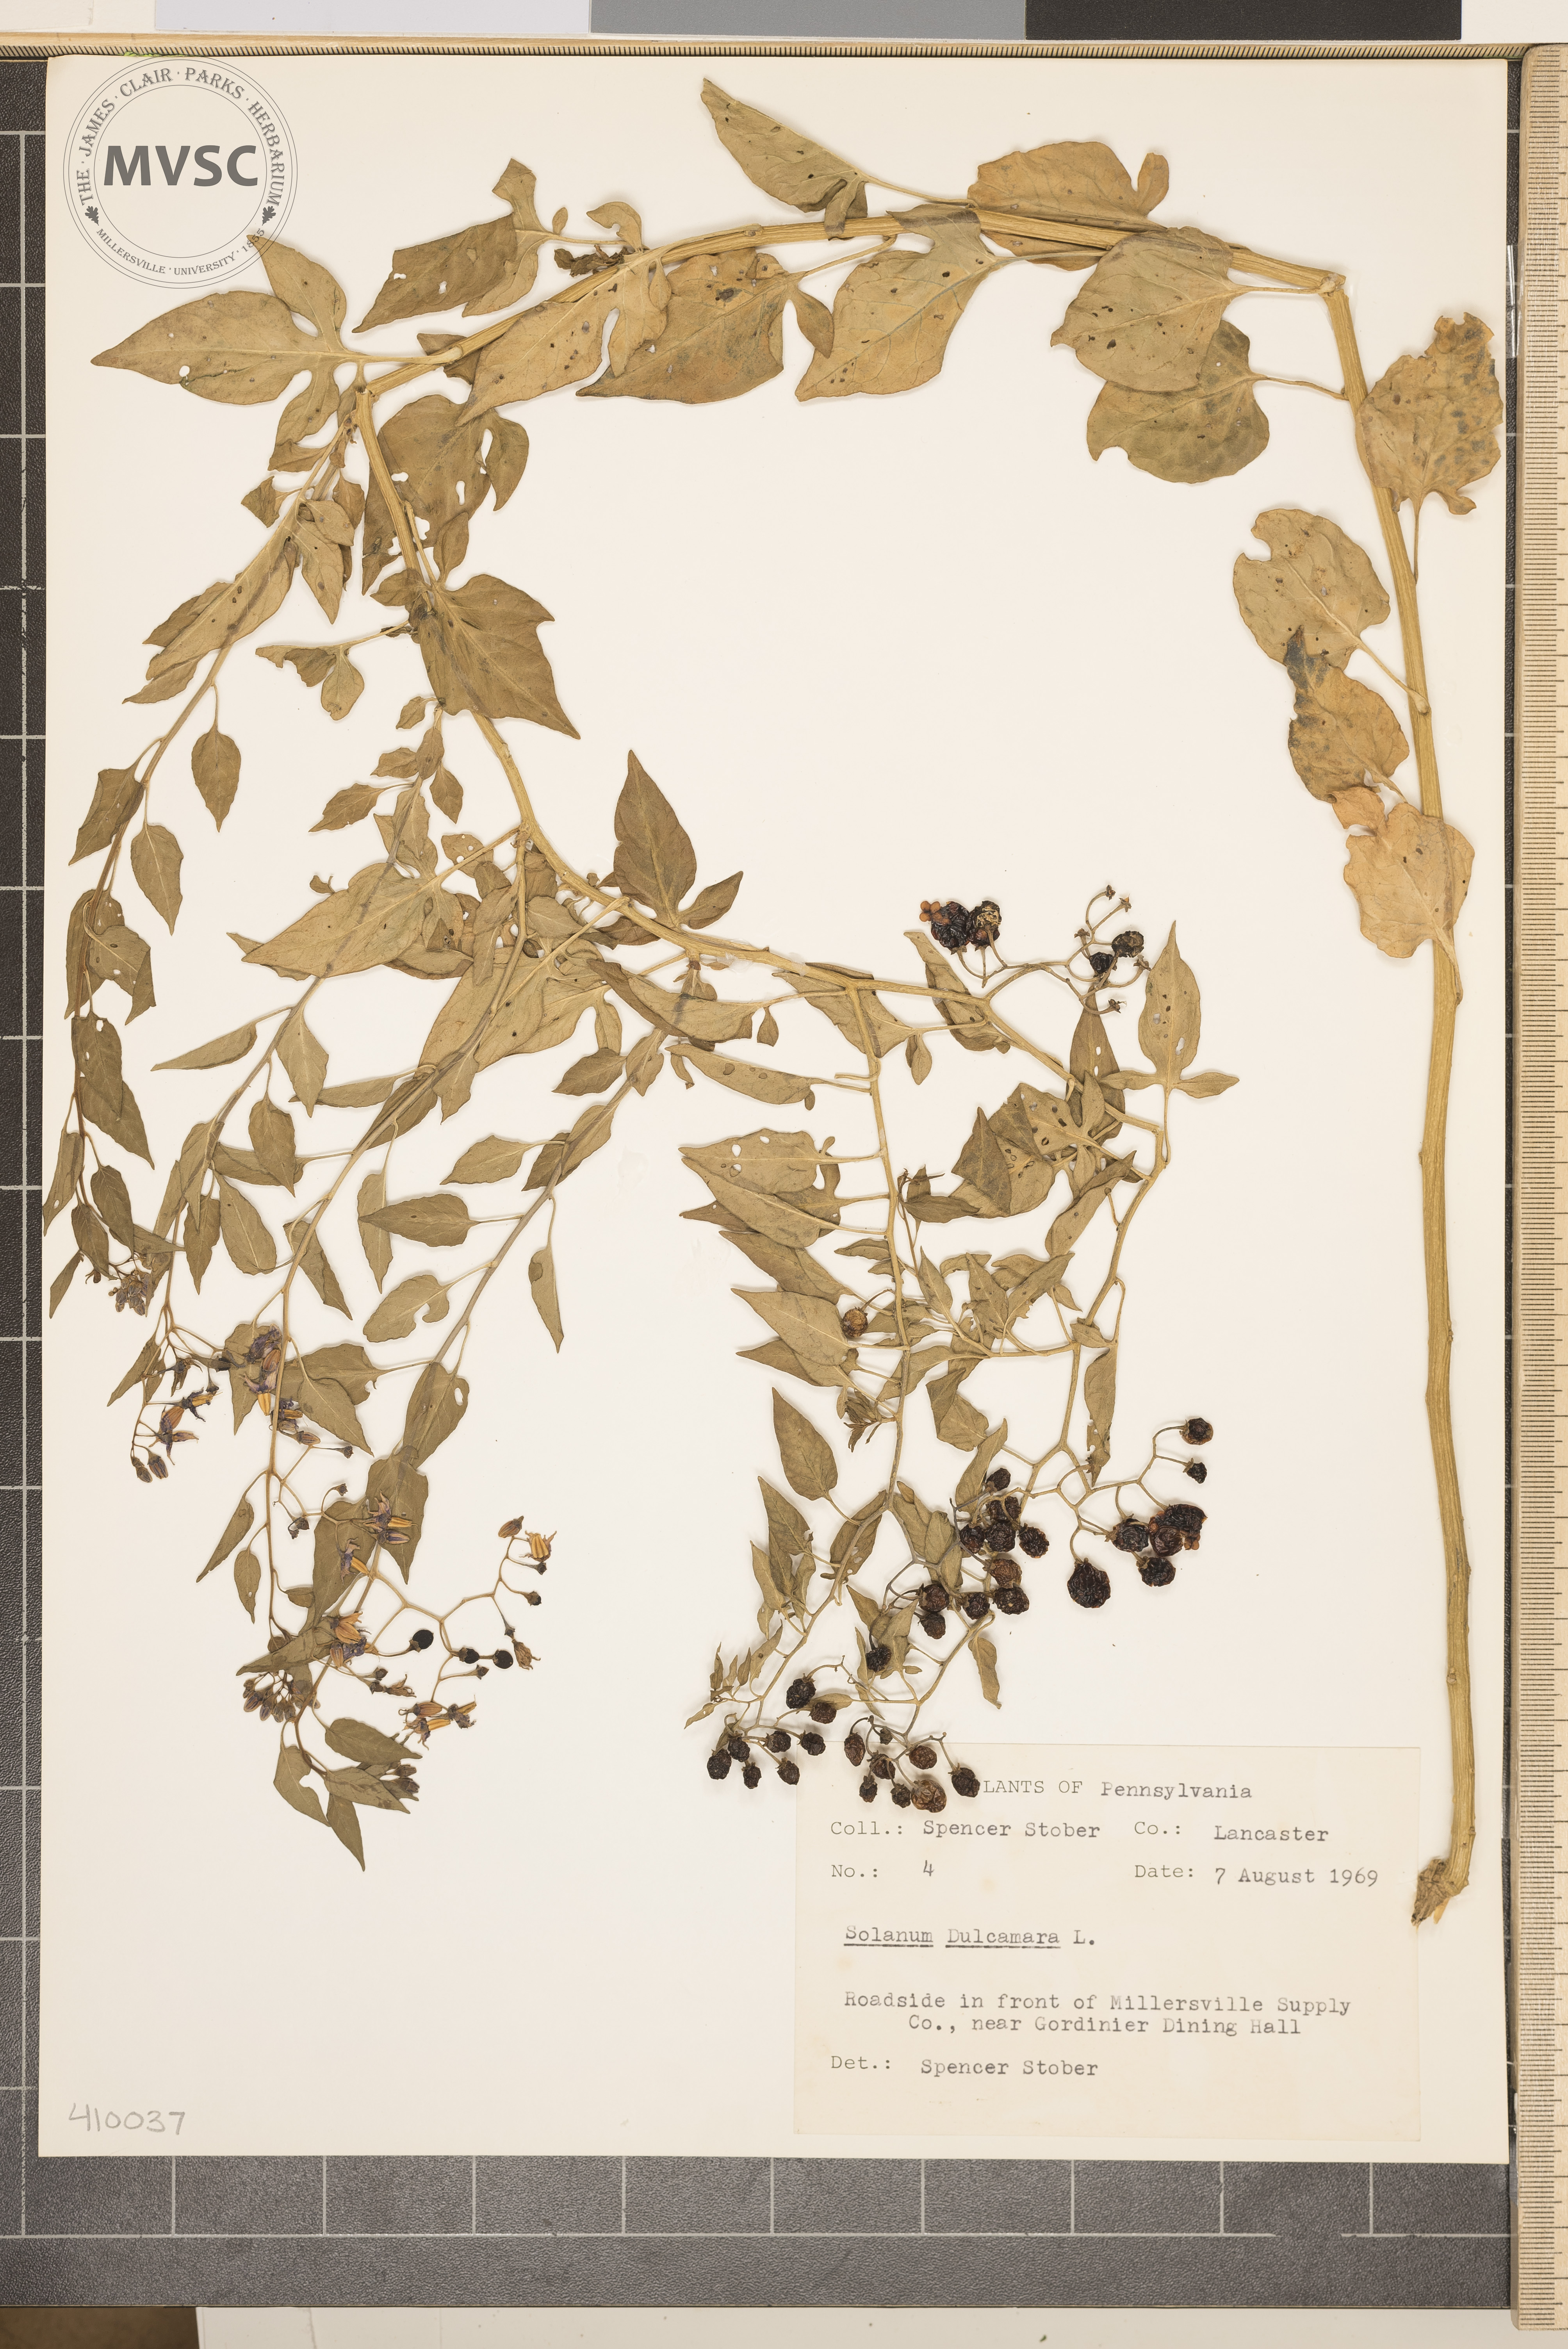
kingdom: Plantae
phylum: Tracheophyta
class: Magnoliopsida
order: Solanales
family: Solanaceae
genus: Solanum
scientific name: Solanum dulcamara
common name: Climbing nightshade
